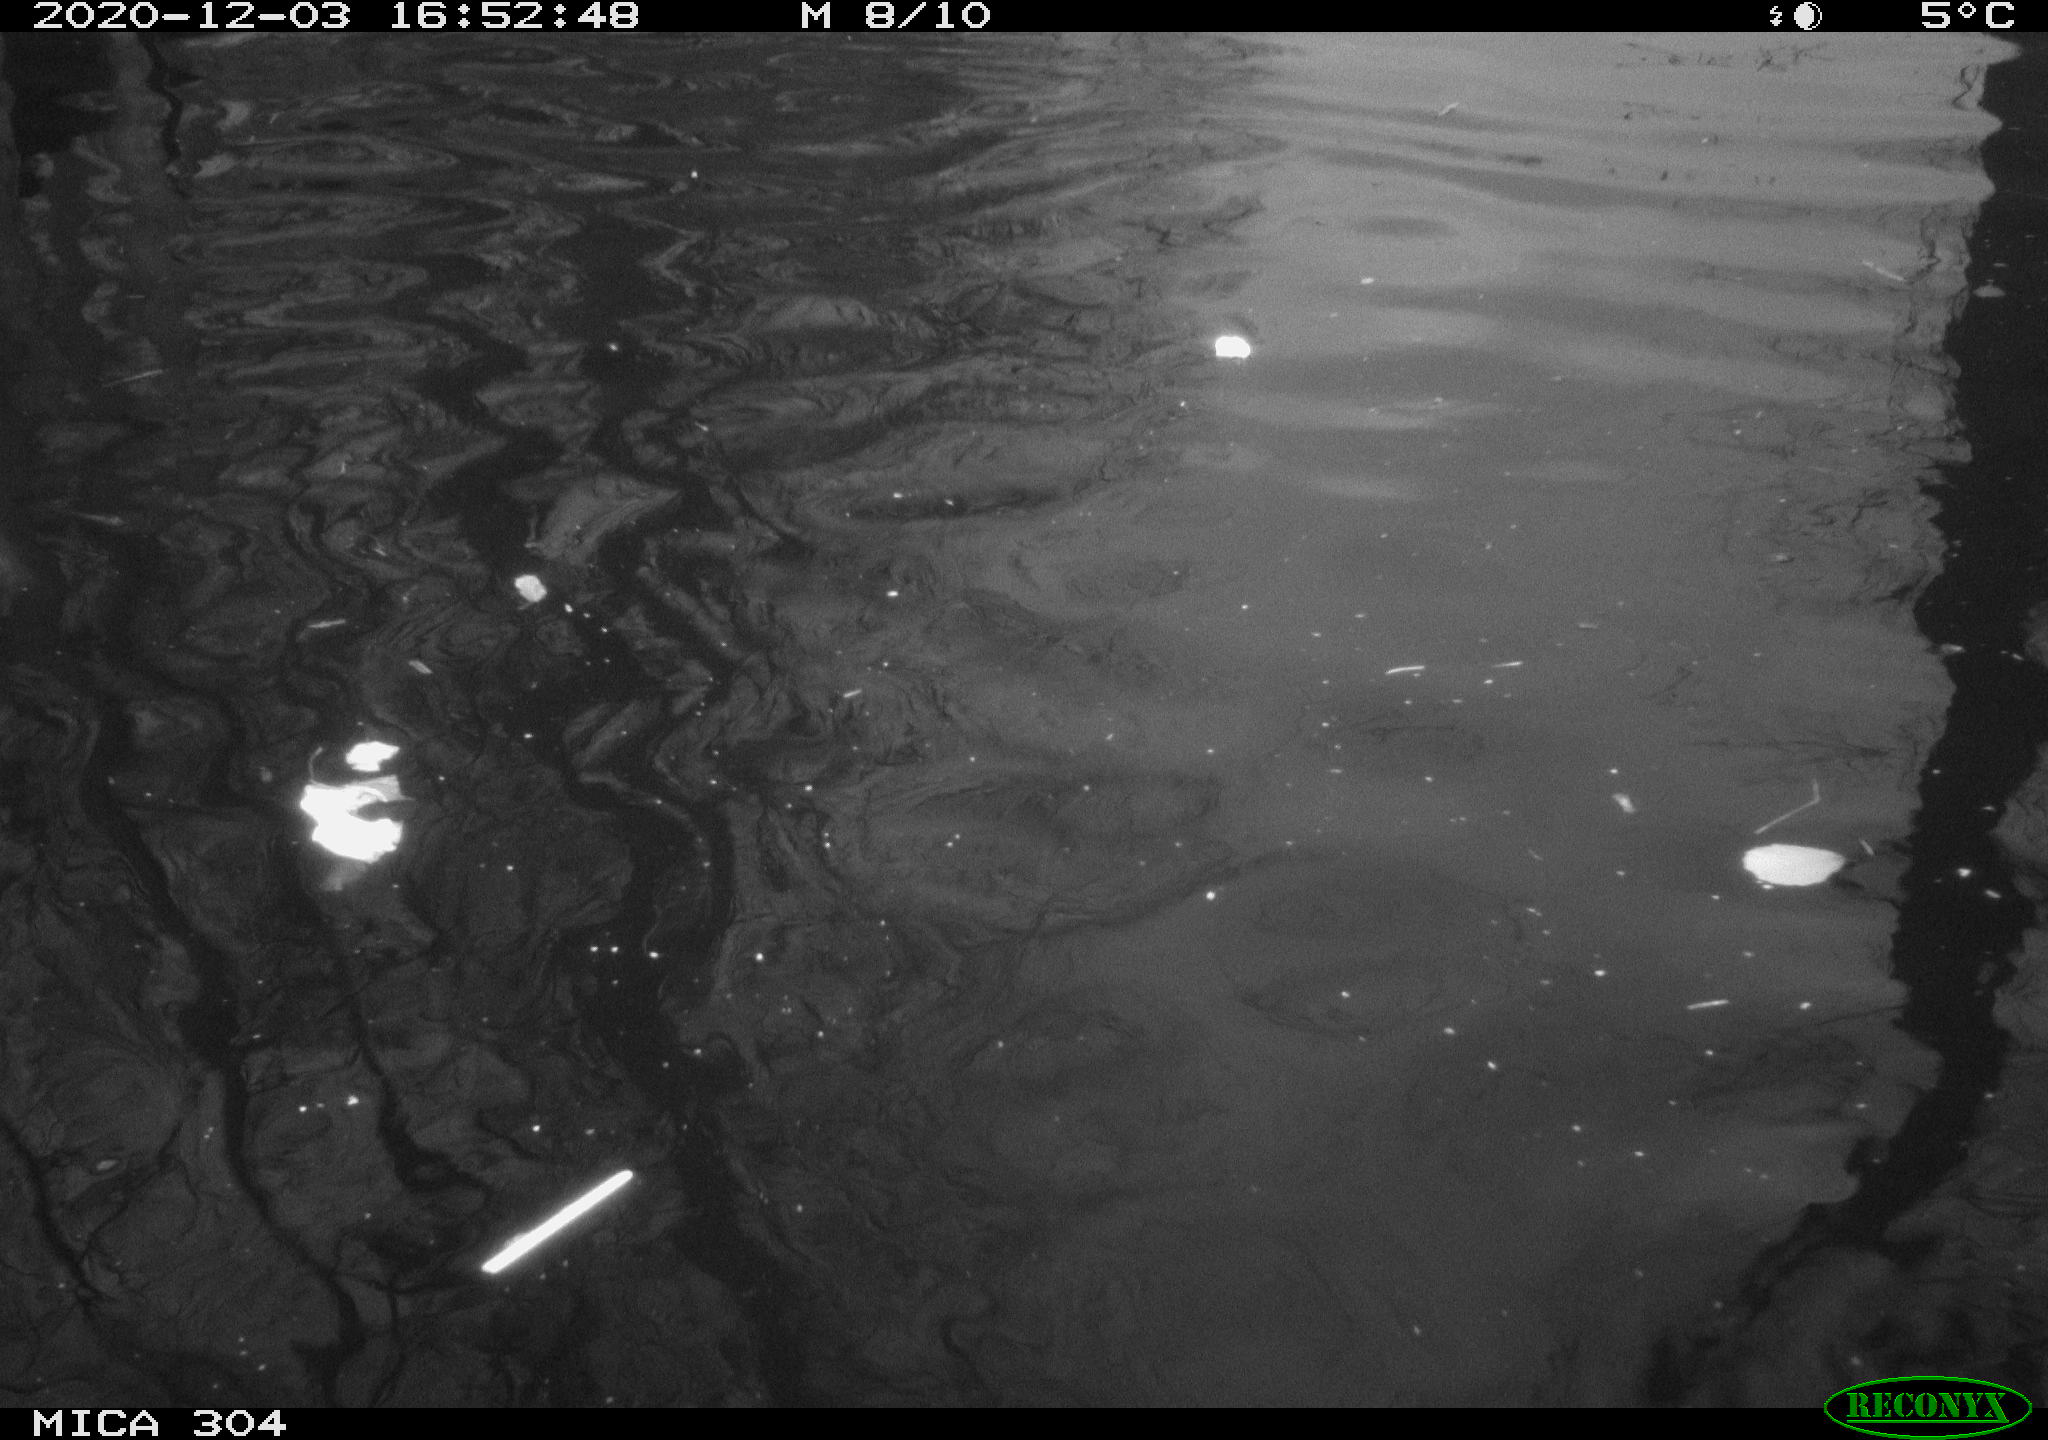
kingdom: Animalia
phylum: Chordata
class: Aves
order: Gruiformes
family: Rallidae
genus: Gallinula
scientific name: Gallinula chloropus
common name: Common moorhen
